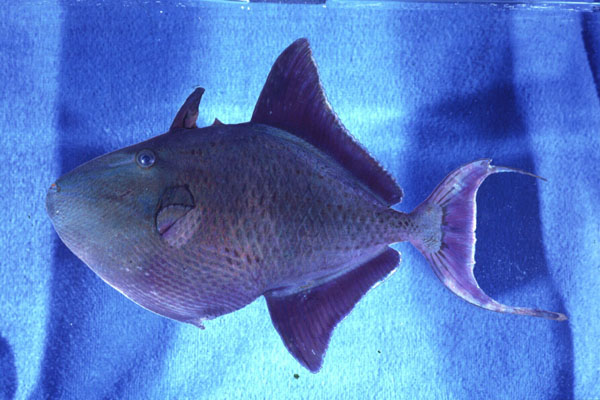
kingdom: Animalia
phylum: Chordata
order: Tetraodontiformes
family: Balistidae
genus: Odonus
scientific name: Odonus niger
